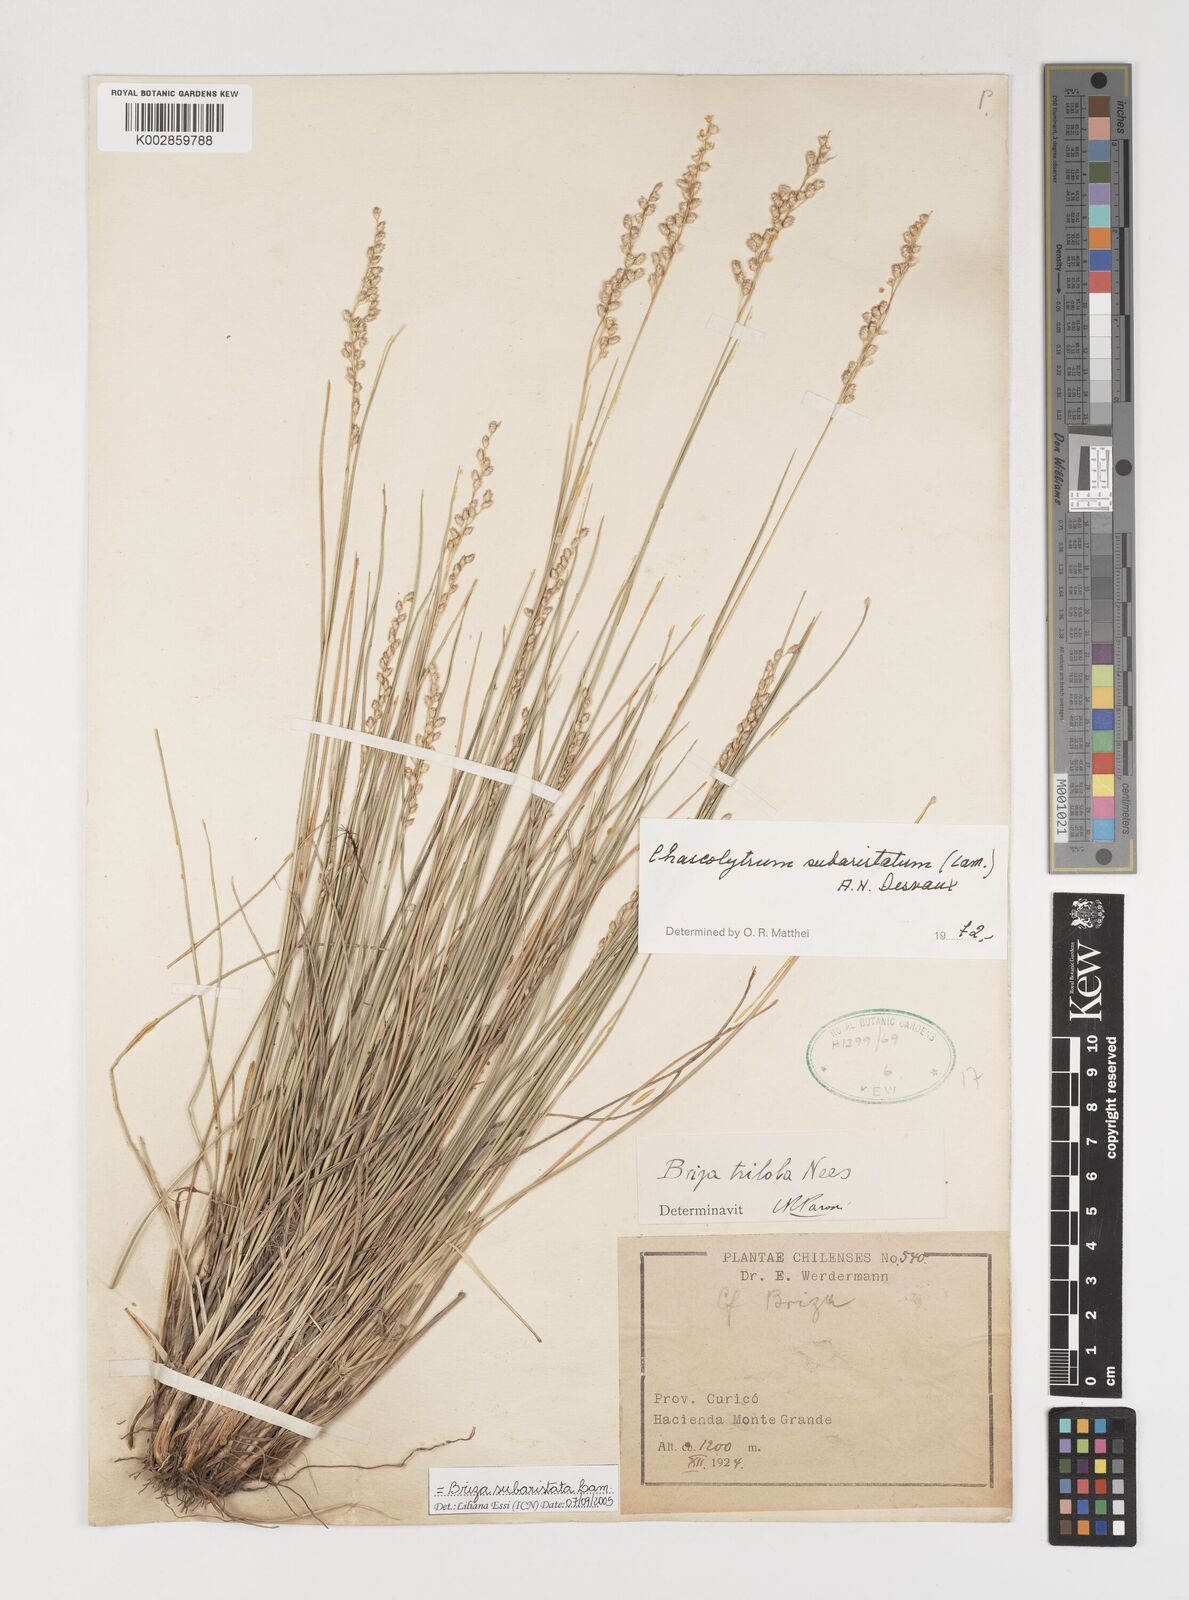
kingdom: Plantae
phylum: Tracheophyta
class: Liliopsida
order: Poales
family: Poaceae
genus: Chascolytrum
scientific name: Chascolytrum subaristatum
